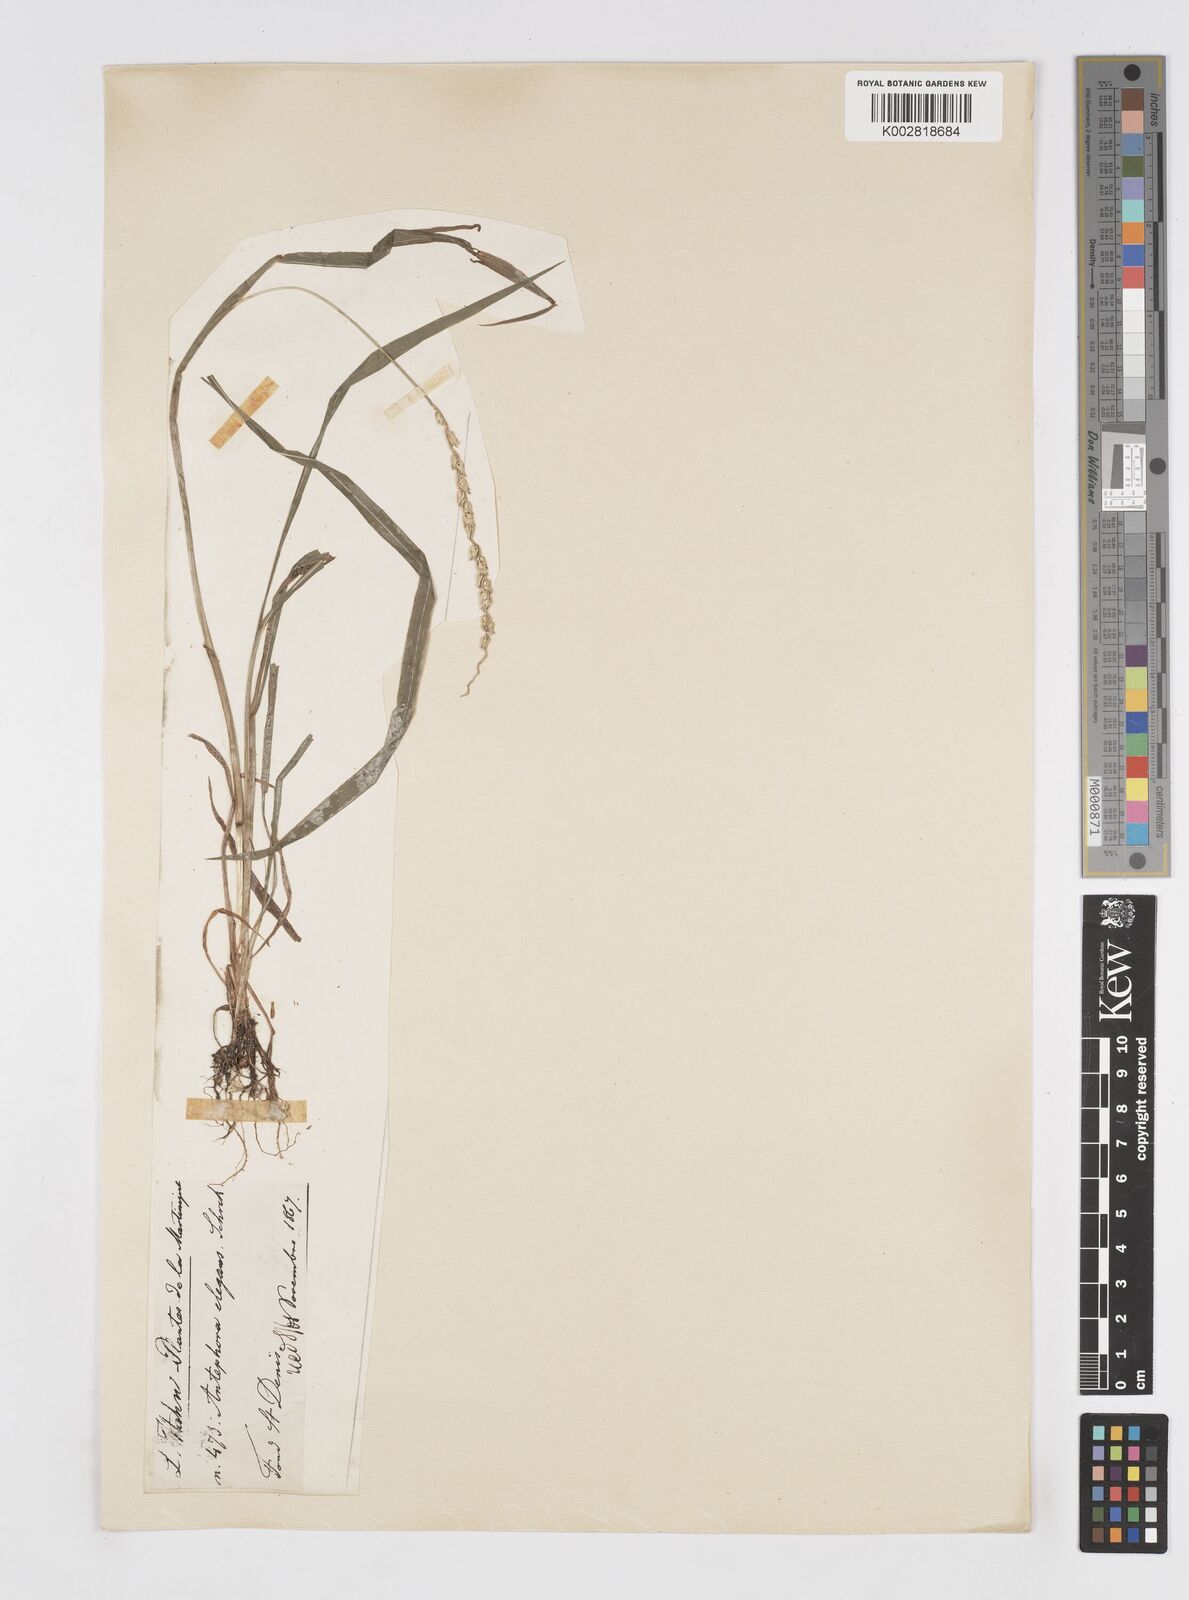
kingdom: Plantae
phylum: Tracheophyta
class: Liliopsida
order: Poales
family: Poaceae
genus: Anthephora
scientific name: Anthephora hermaphrodita
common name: Oldfield grass
